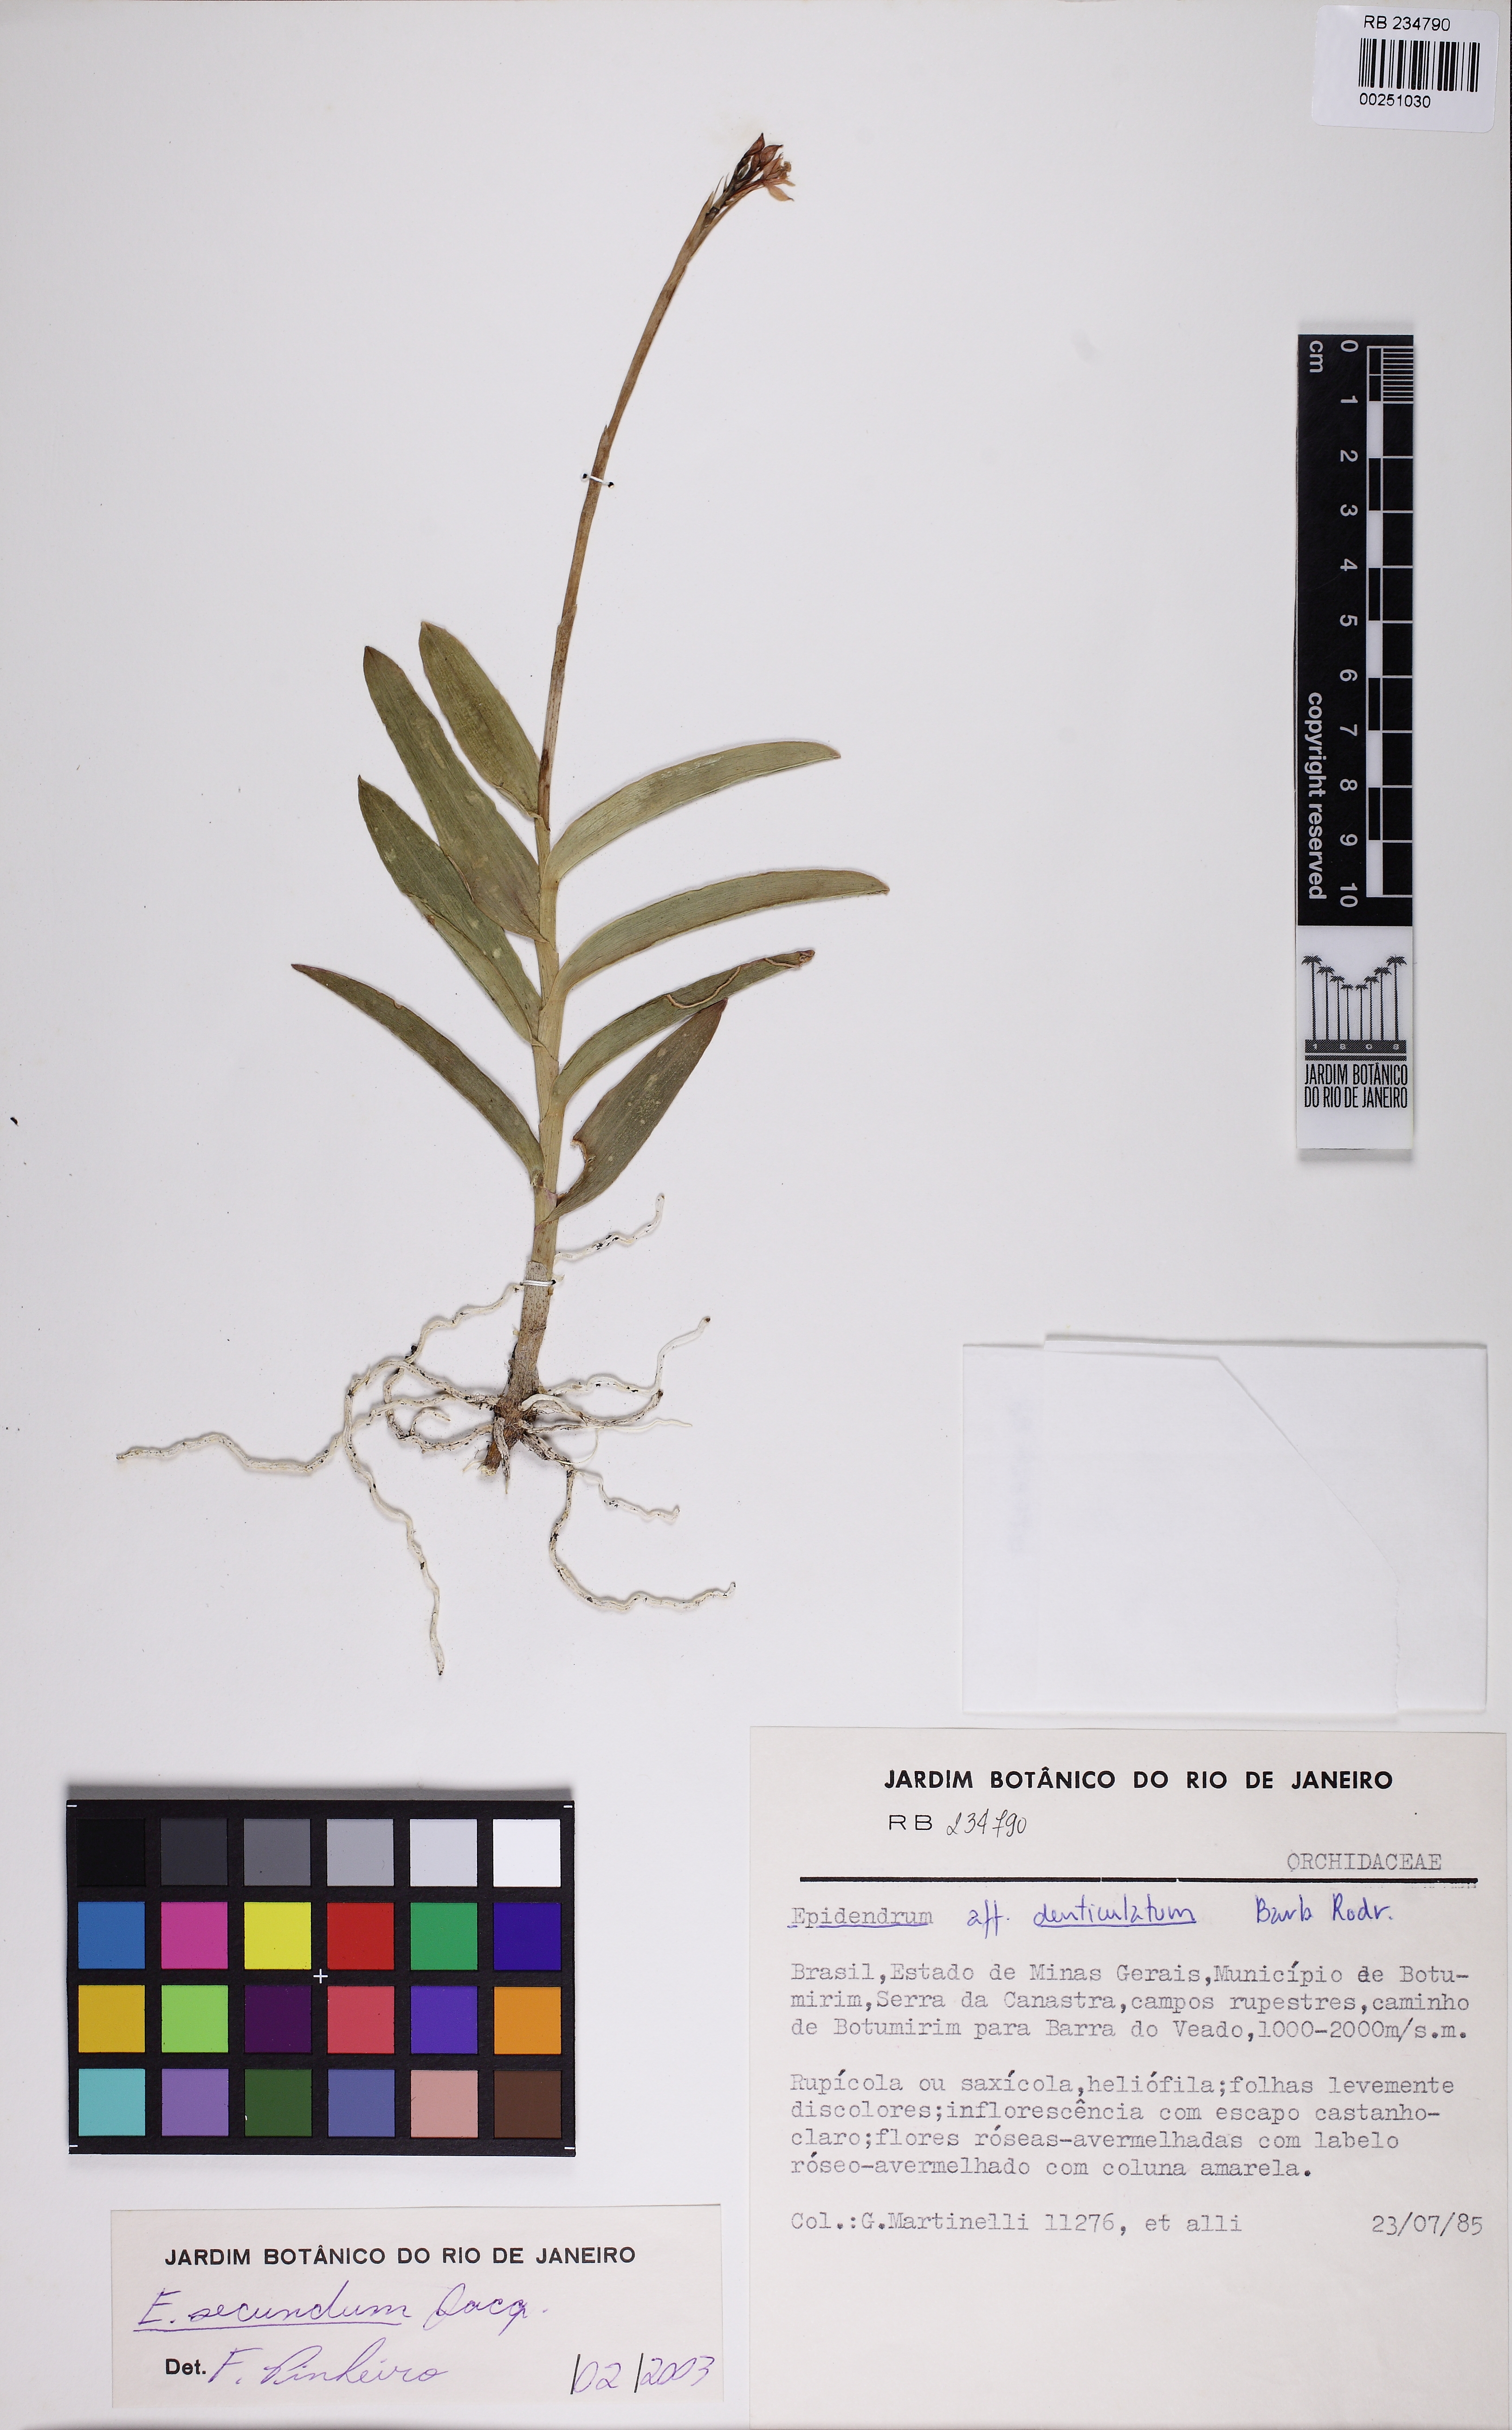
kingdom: Plantae
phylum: Tracheophyta
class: Liliopsida
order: Asparagales
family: Orchidaceae
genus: Epidendrum
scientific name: Epidendrum secundum
